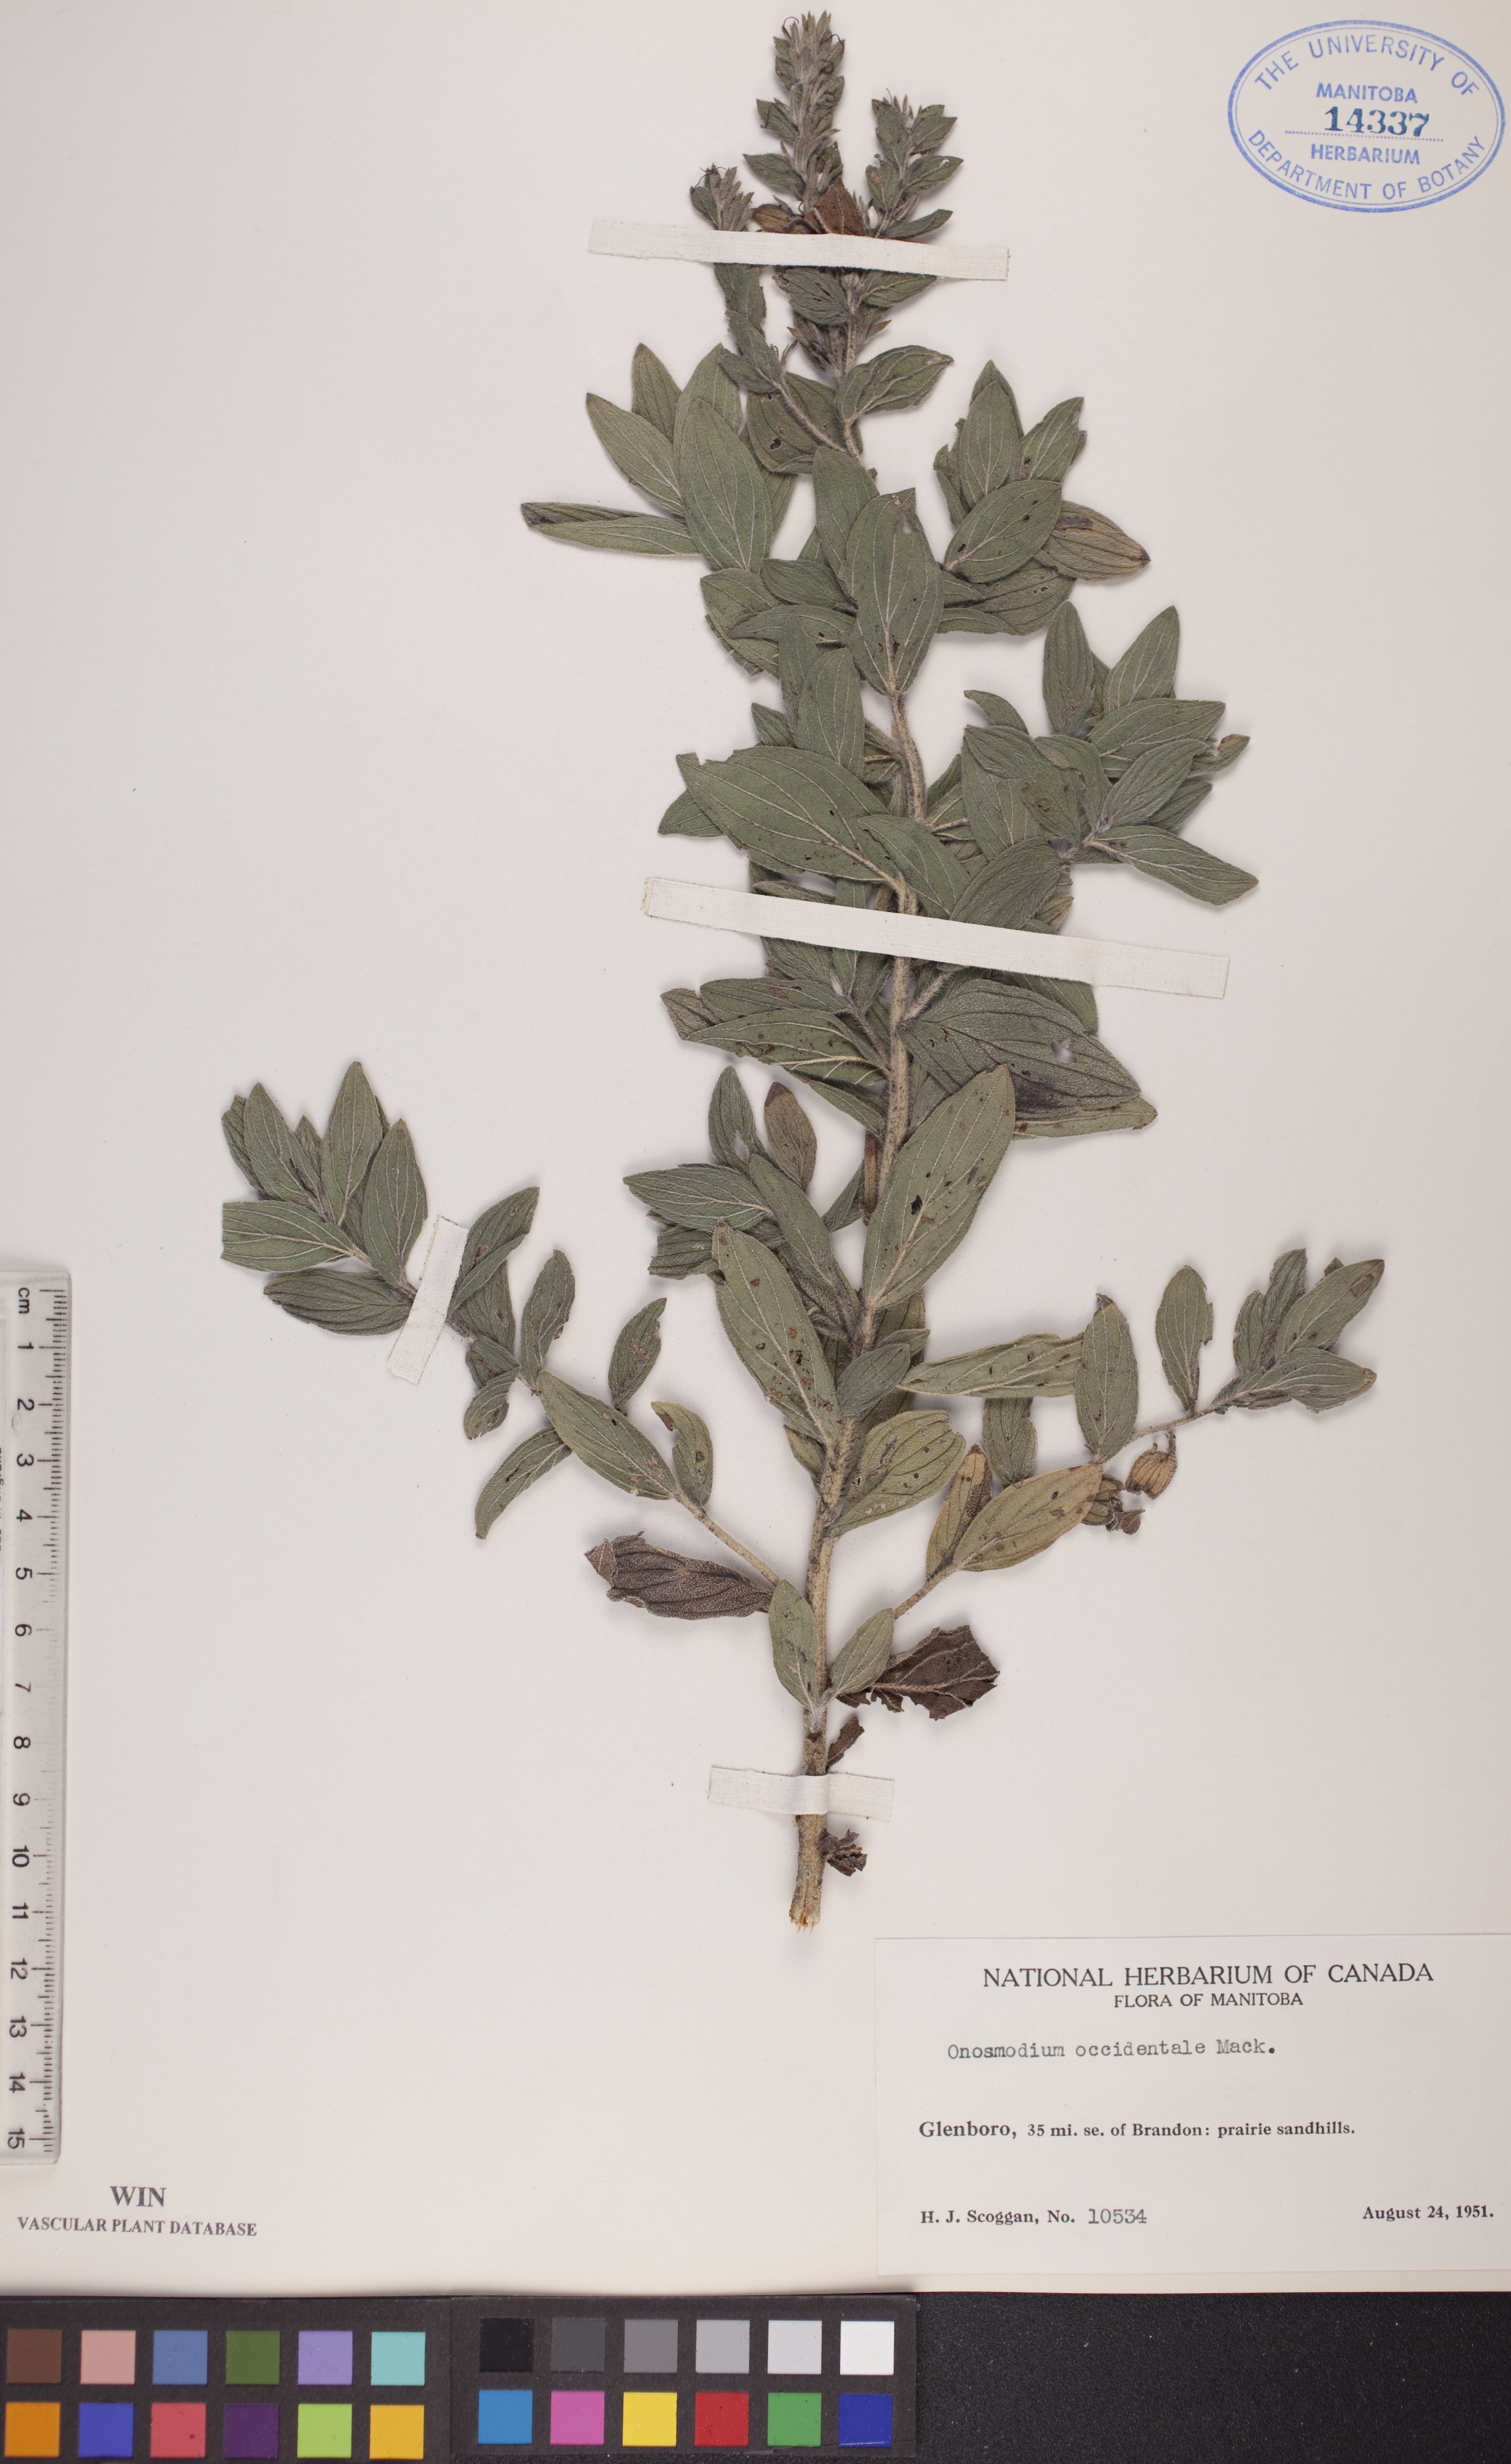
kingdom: Plantae
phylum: Tracheophyta
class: Magnoliopsida
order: Boraginales
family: Boraginaceae
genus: Lithospermum
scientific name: Lithospermum occidentale
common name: Western false gromwell
